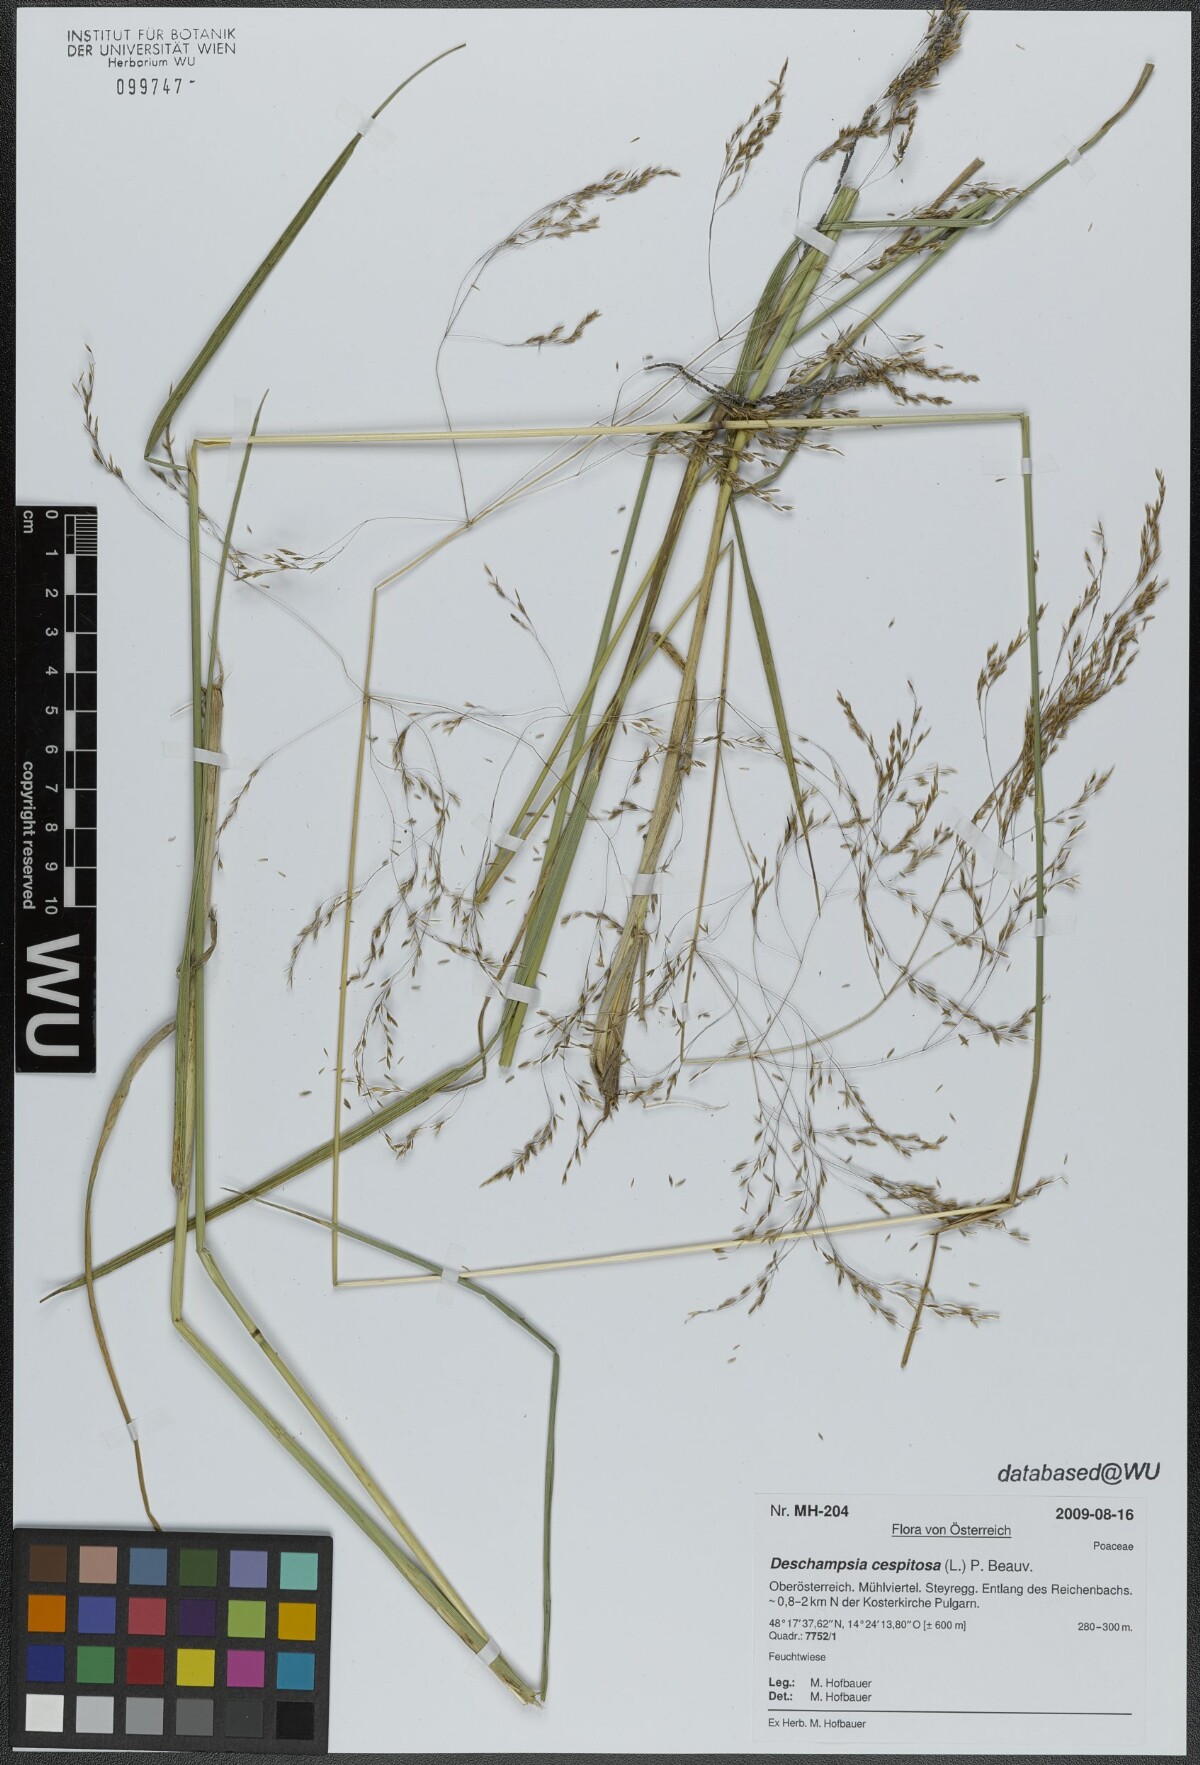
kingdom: Plantae
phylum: Tracheophyta
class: Liliopsida
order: Poales
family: Poaceae
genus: Deschampsia
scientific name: Deschampsia cespitosa
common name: Tufted hair-grass
